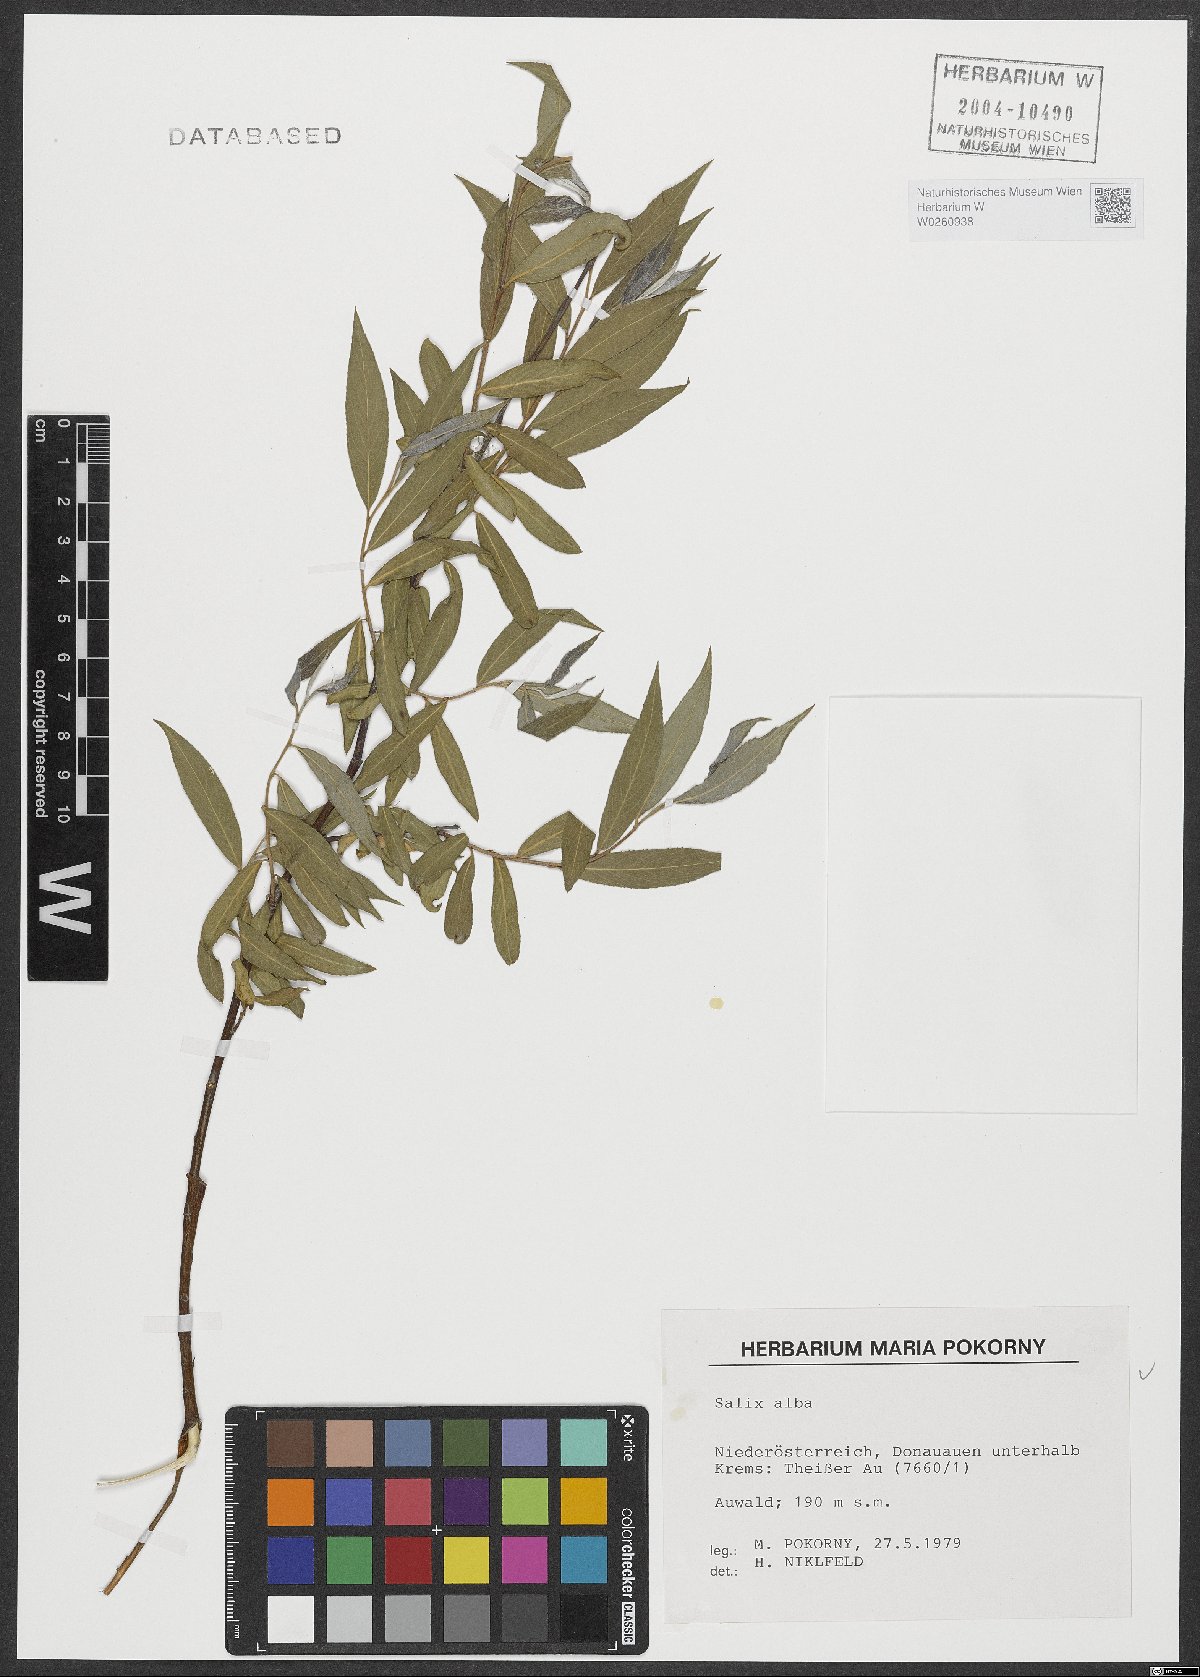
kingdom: Plantae
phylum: Tracheophyta
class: Magnoliopsida
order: Malpighiales
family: Salicaceae
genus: Salix
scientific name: Salix alba
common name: White willow
